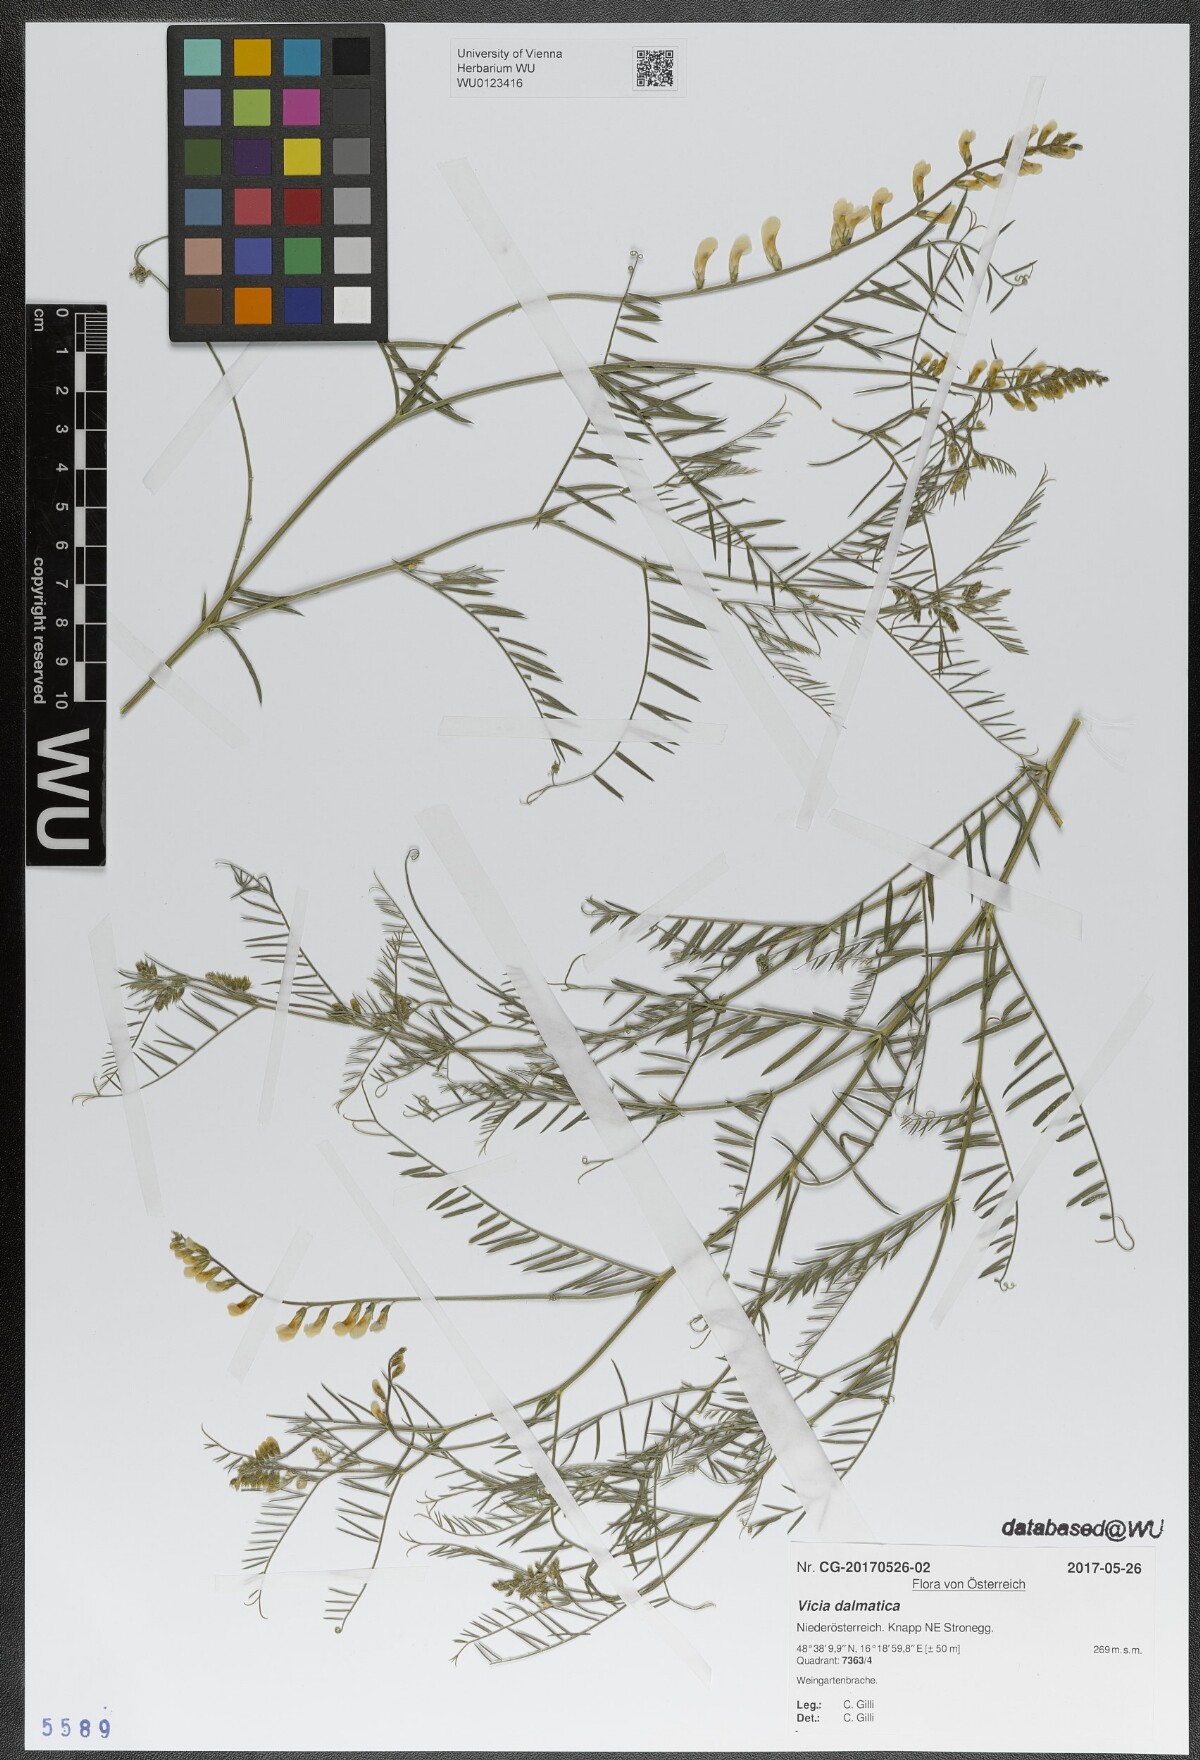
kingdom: Plantae
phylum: Tracheophyta
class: Magnoliopsida
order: Fabales
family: Fabaceae
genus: Vicia
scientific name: Vicia dalmatica
